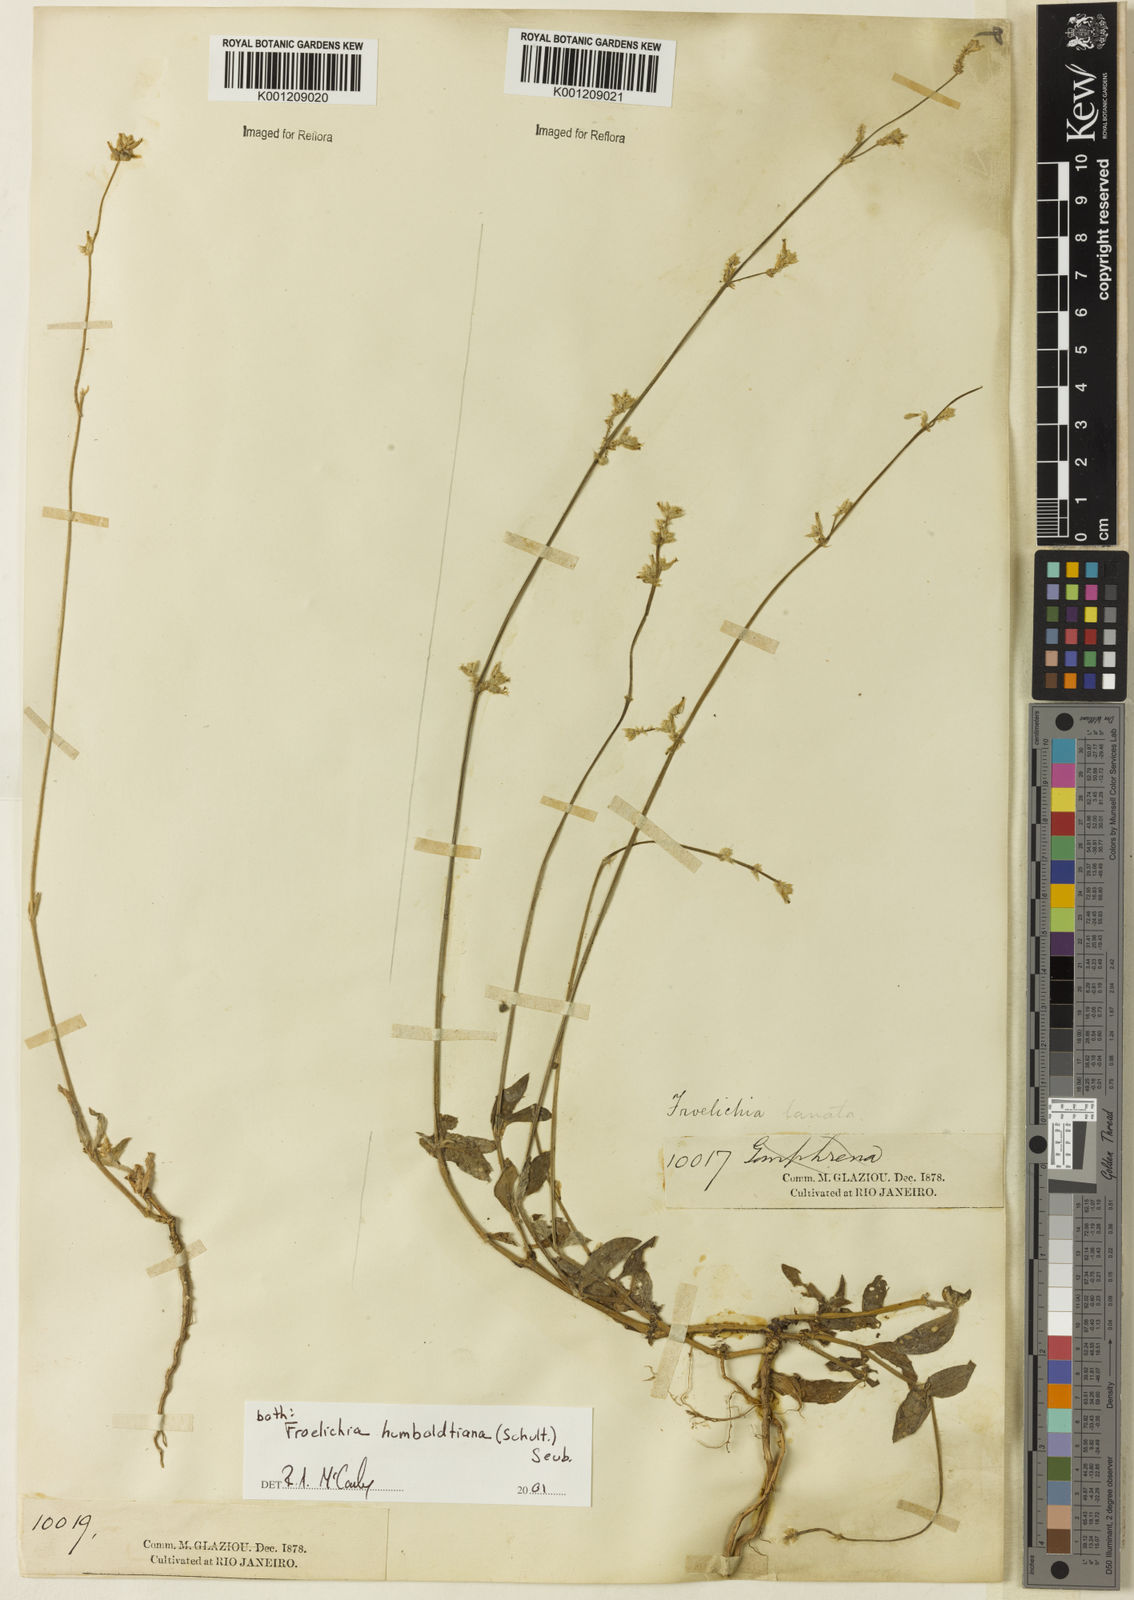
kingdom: Plantae
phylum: Tracheophyta
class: Magnoliopsida
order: Caryophyllales
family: Amaranthaceae
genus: Froelichia
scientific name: Froelichia humboldtiana
